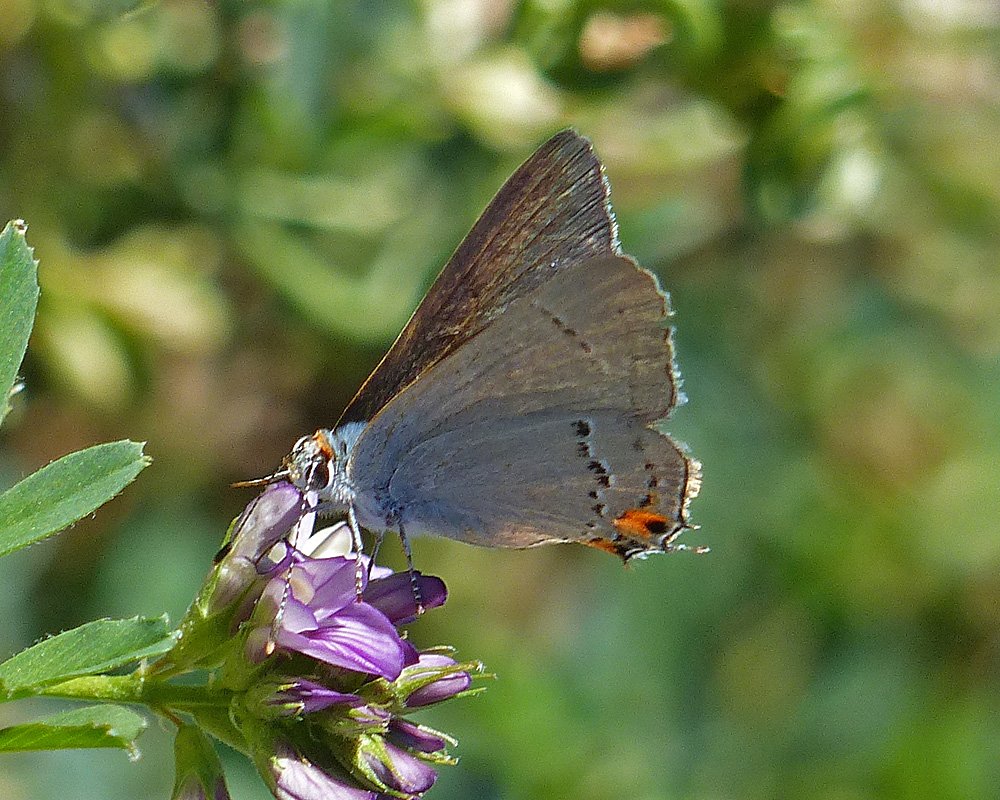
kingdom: Animalia
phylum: Arthropoda
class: Insecta
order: Lepidoptera
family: Lycaenidae
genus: Strymon
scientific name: Strymon melinus
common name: Gray Hairstreak
